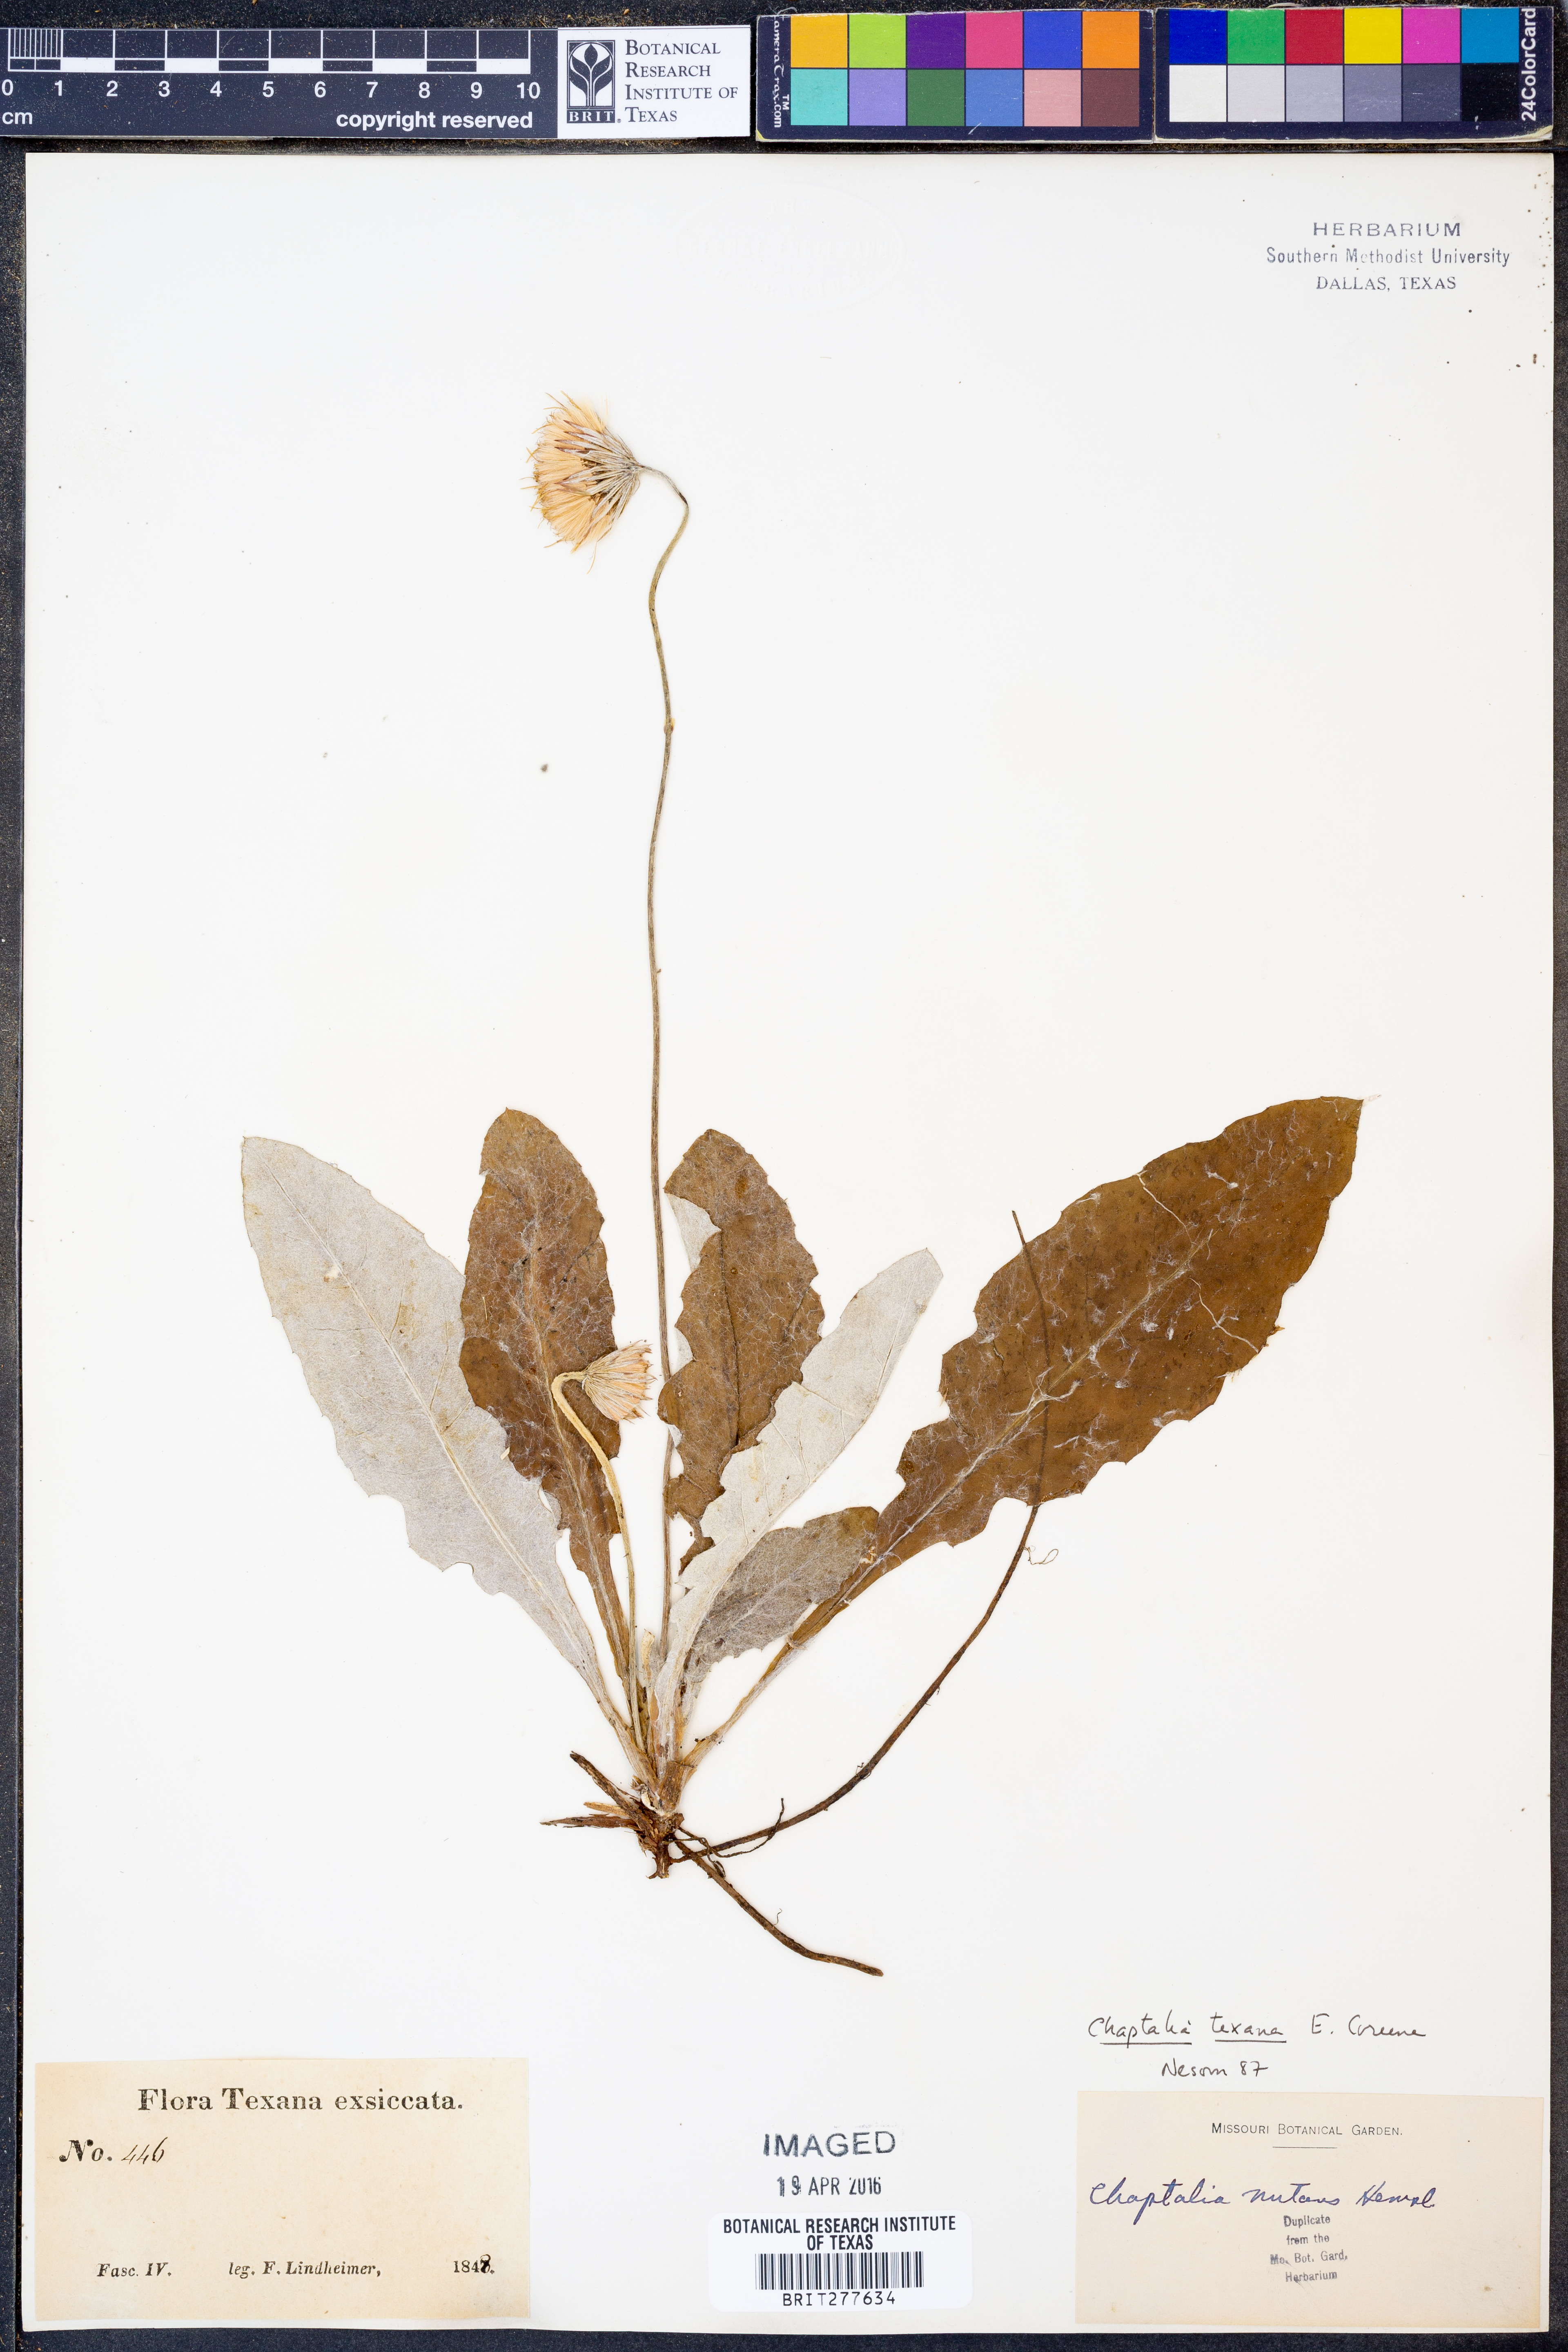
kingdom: Plantae
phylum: Tracheophyta
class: Magnoliopsida
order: Asterales
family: Asteraceae
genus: Chaptalia
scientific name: Chaptalia texana
